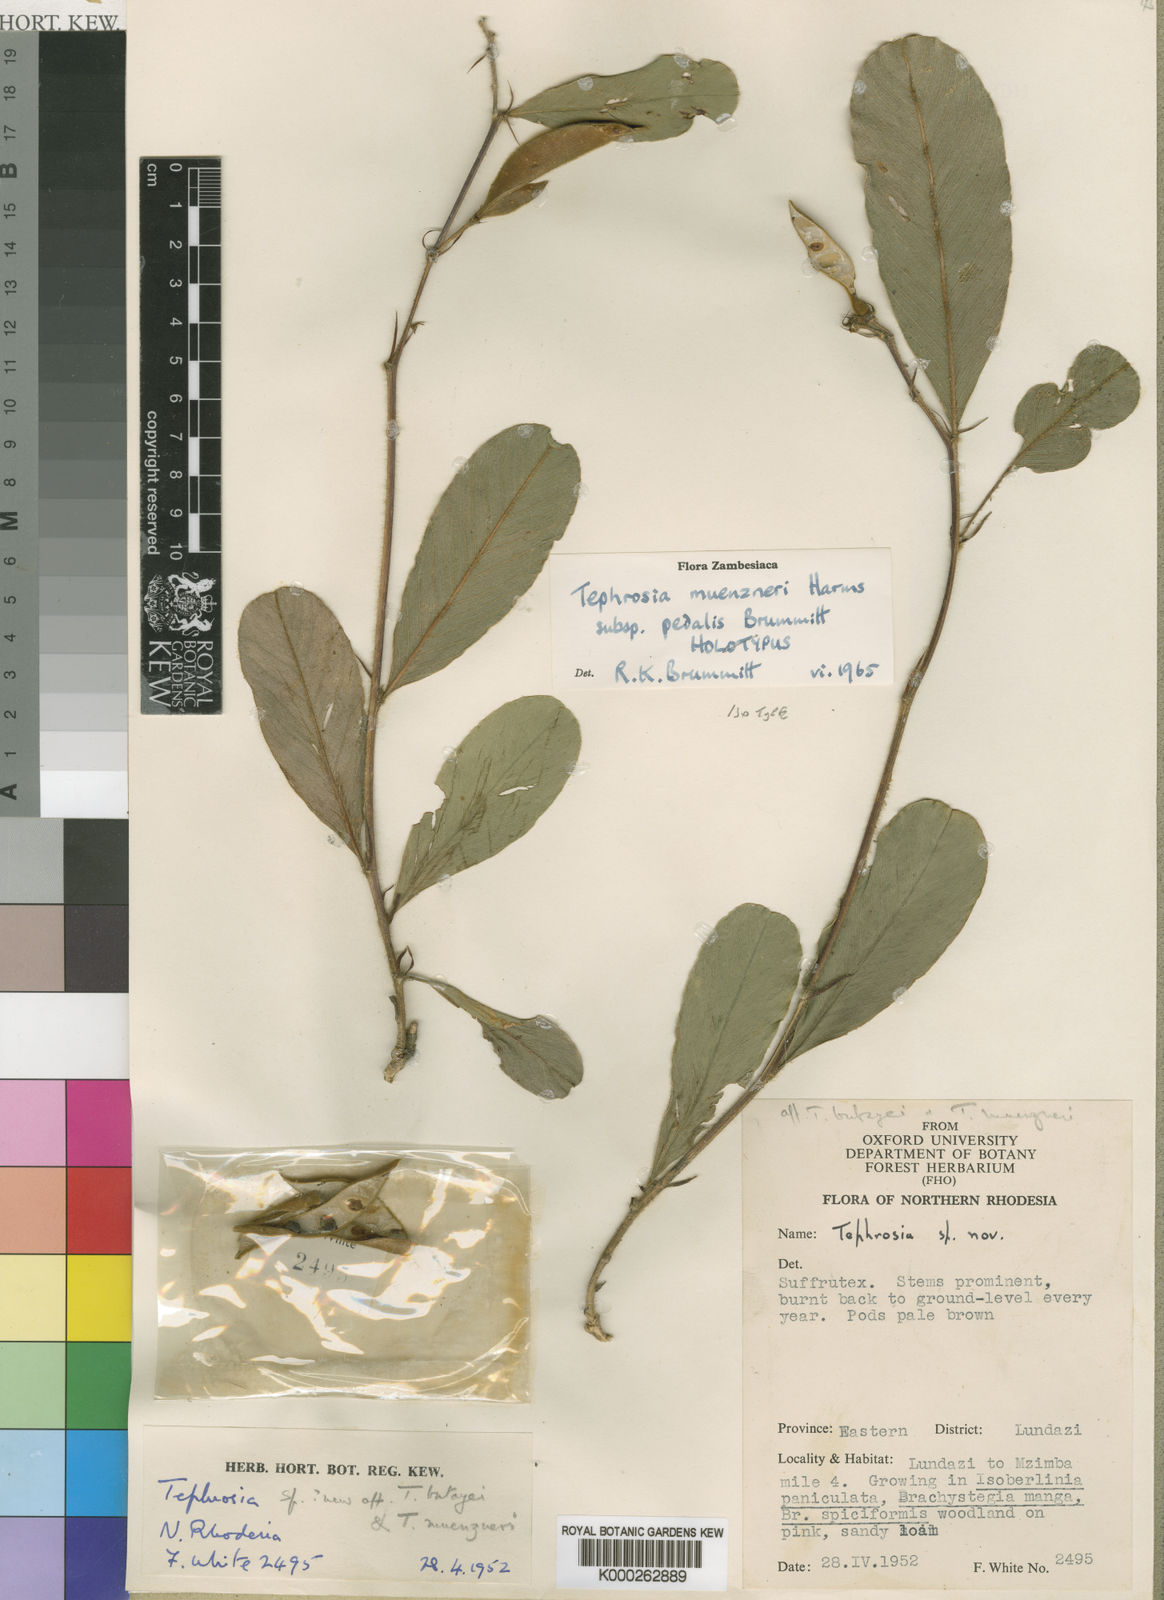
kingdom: Plantae
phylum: Tracheophyta
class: Magnoliopsida
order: Fabales
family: Fabaceae
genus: Tephrosia
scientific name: Tephrosia muenzneri
